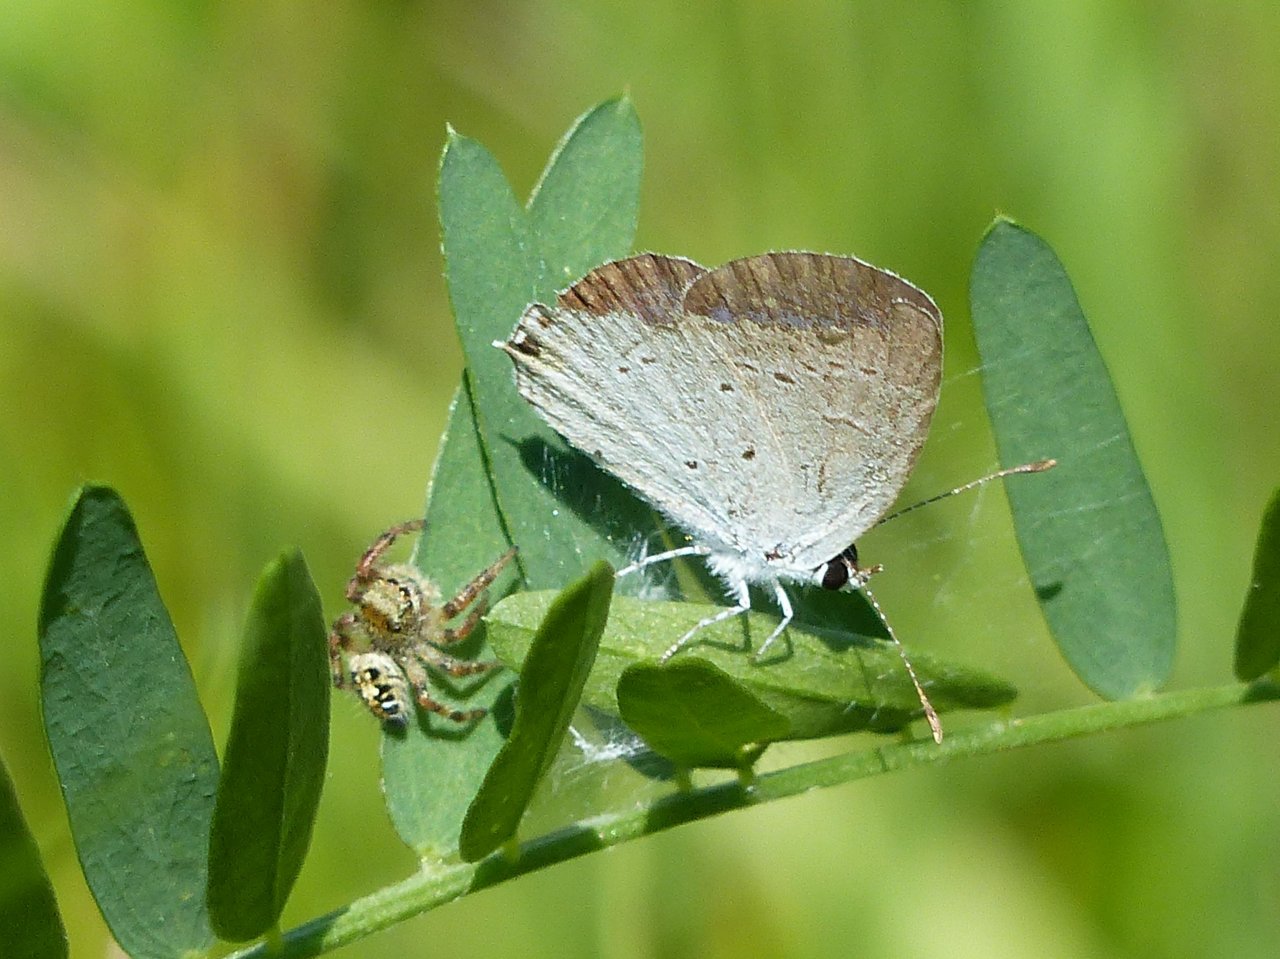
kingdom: Animalia
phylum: Arthropoda
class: Insecta
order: Lepidoptera
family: Lycaenidae
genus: Elkalyce
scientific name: Elkalyce comyntas
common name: Eastern Tailed-Blue
